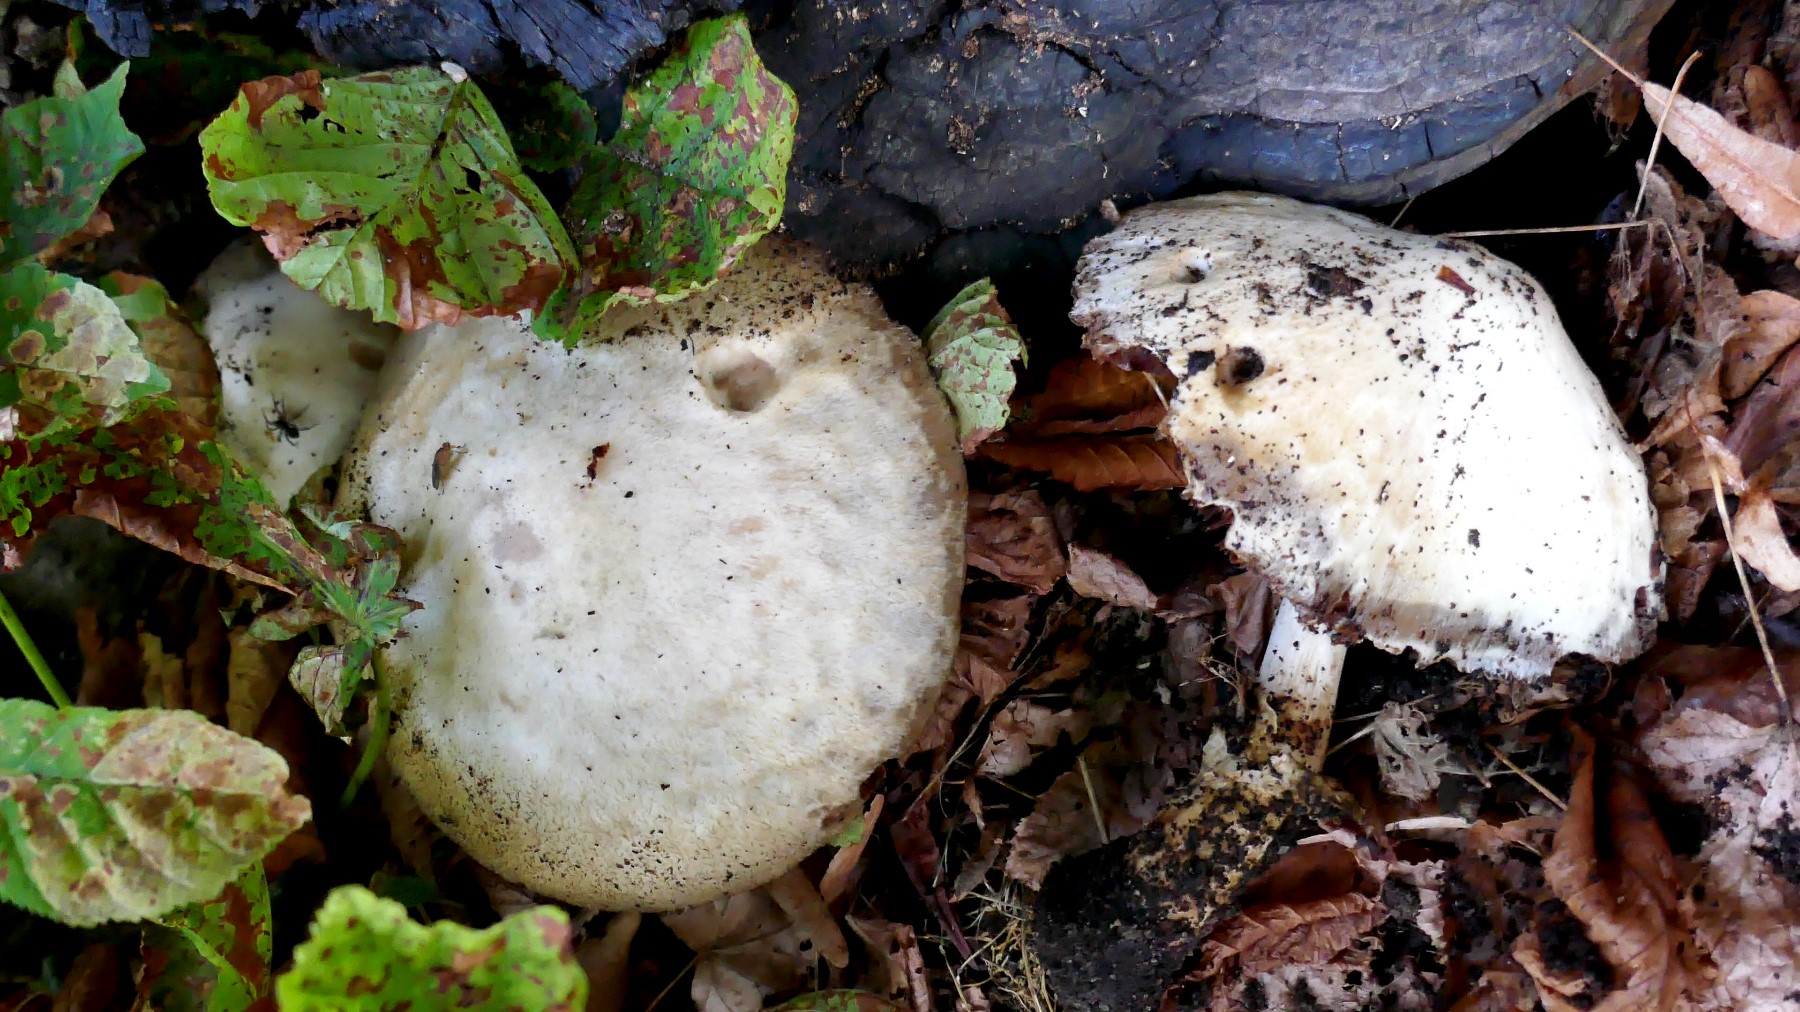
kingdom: Fungi
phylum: Basidiomycota
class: Agaricomycetes
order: Agaricales
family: Pluteaceae
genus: Volvariella
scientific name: Volvariella bombycina
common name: silkehåret posesvamp
